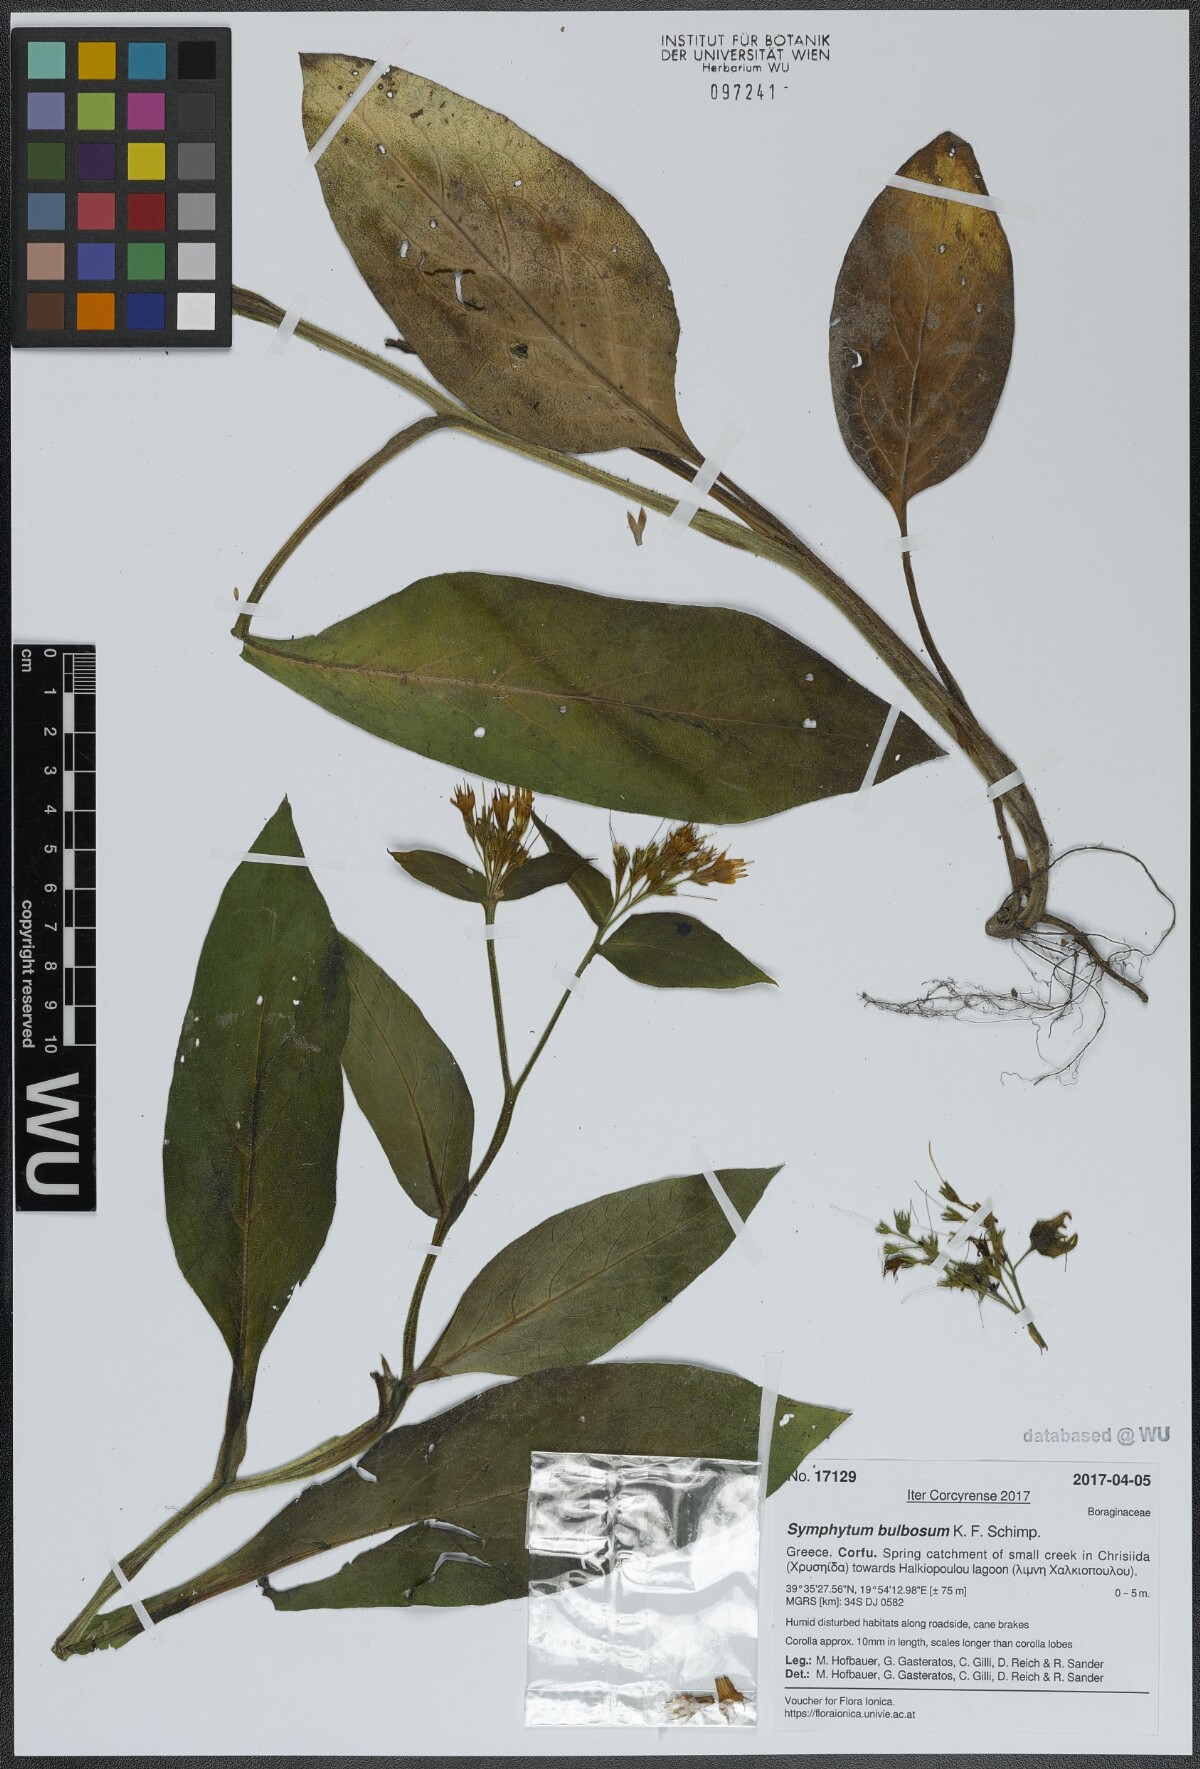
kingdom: Plantae
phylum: Tracheophyta
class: Magnoliopsida
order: Boraginales
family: Boraginaceae
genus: Symphytum
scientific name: Symphytum bulbosum
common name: Bulbous comfrey
